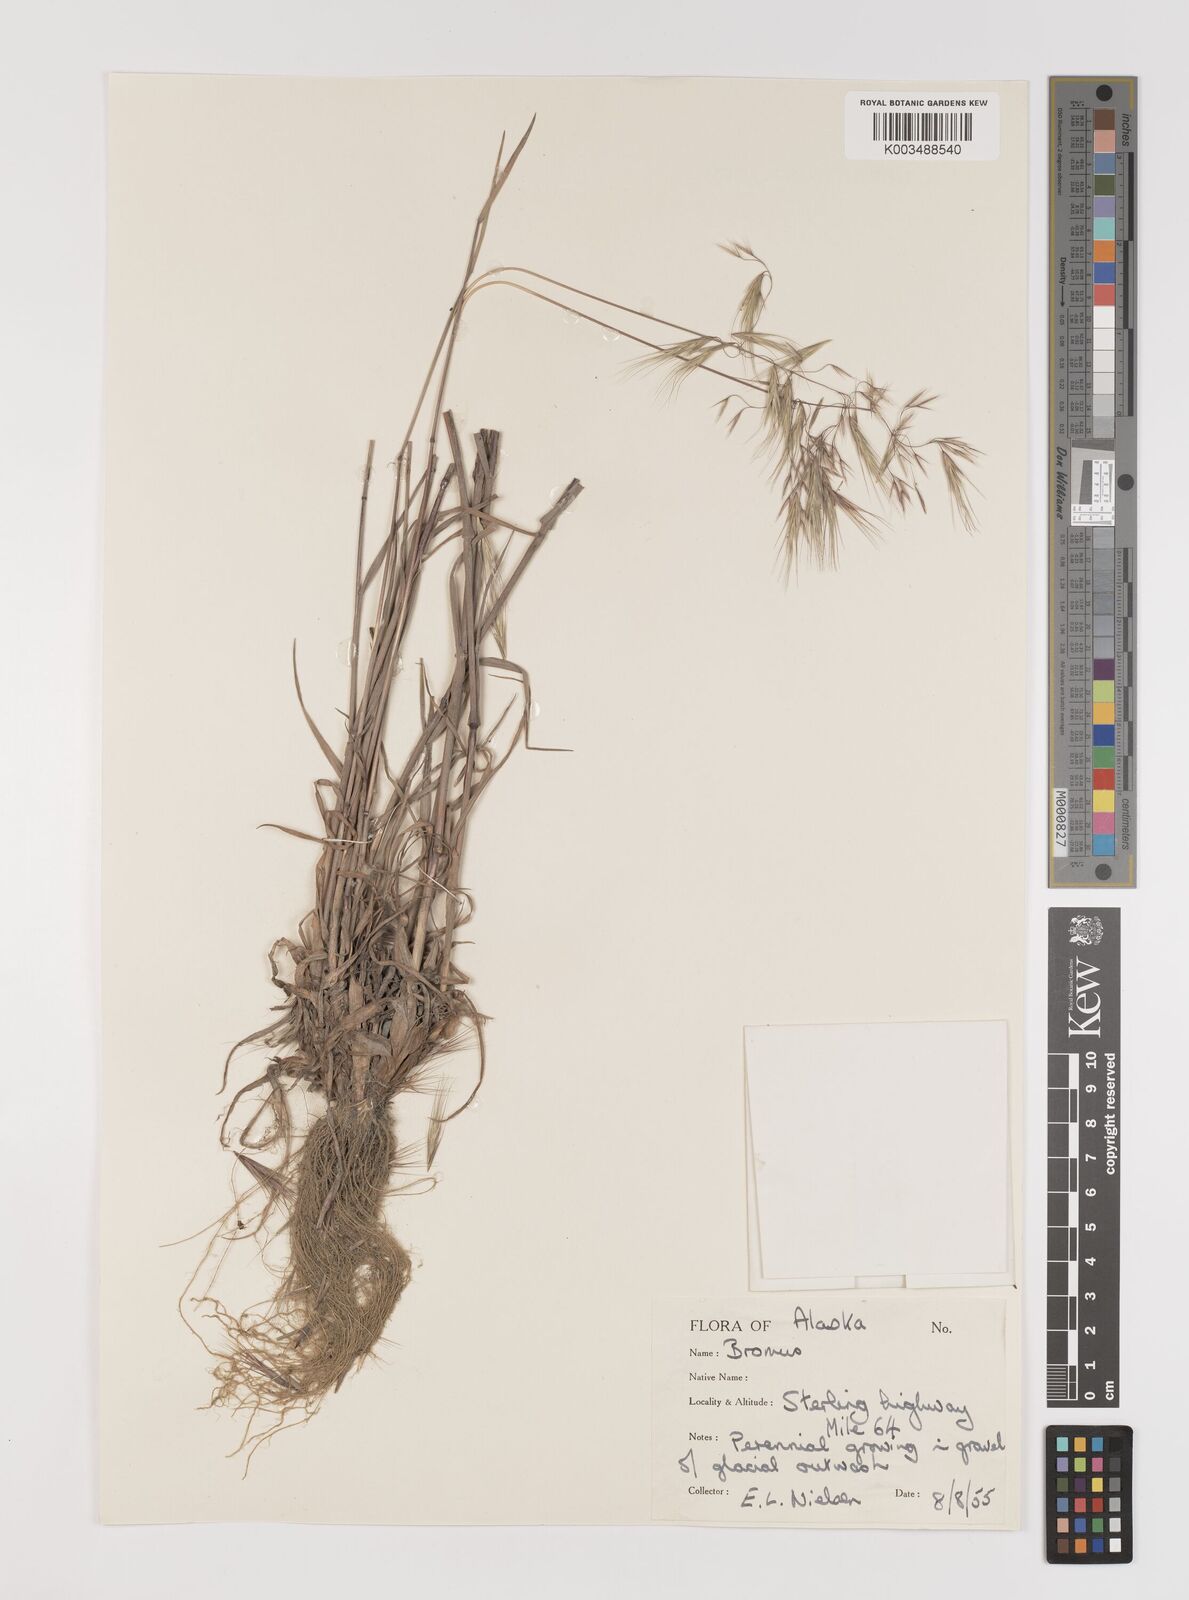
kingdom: Plantae
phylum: Tracheophyta
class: Liliopsida
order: Poales
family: Poaceae
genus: Bromus
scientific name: Bromus tectorum
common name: Cheatgrass
